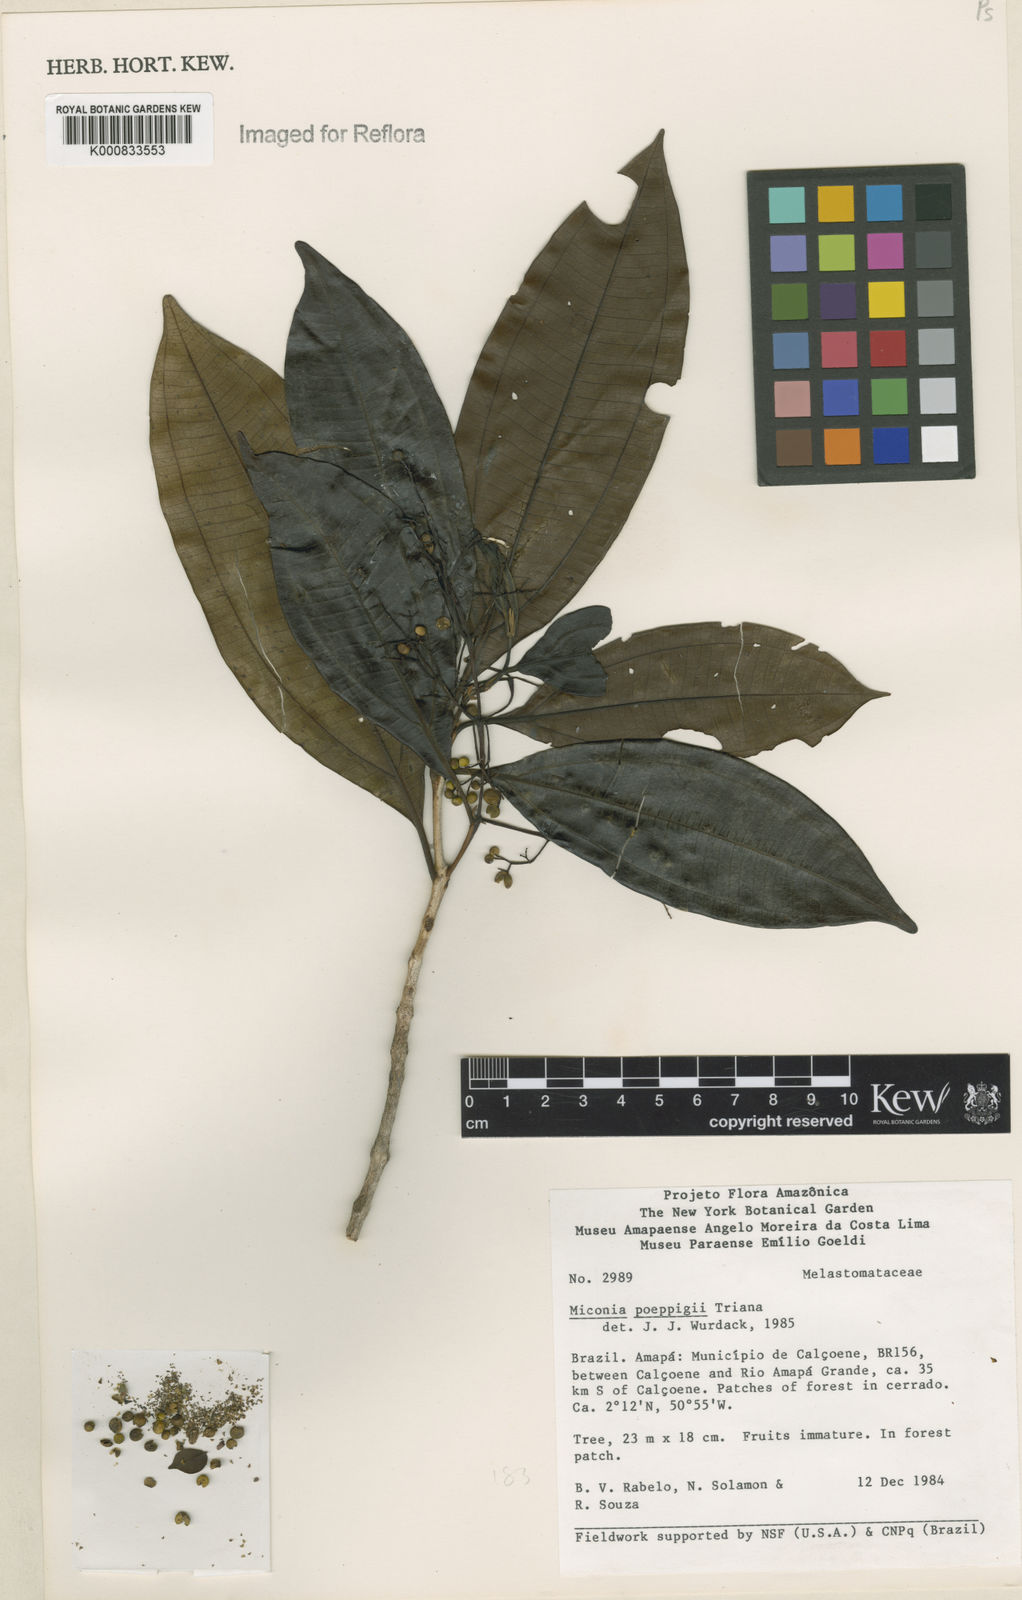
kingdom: Plantae
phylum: Tracheophyta
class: Magnoliopsida
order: Myrtales
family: Melastomataceae
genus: Miconia
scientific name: Miconia poeppigii
